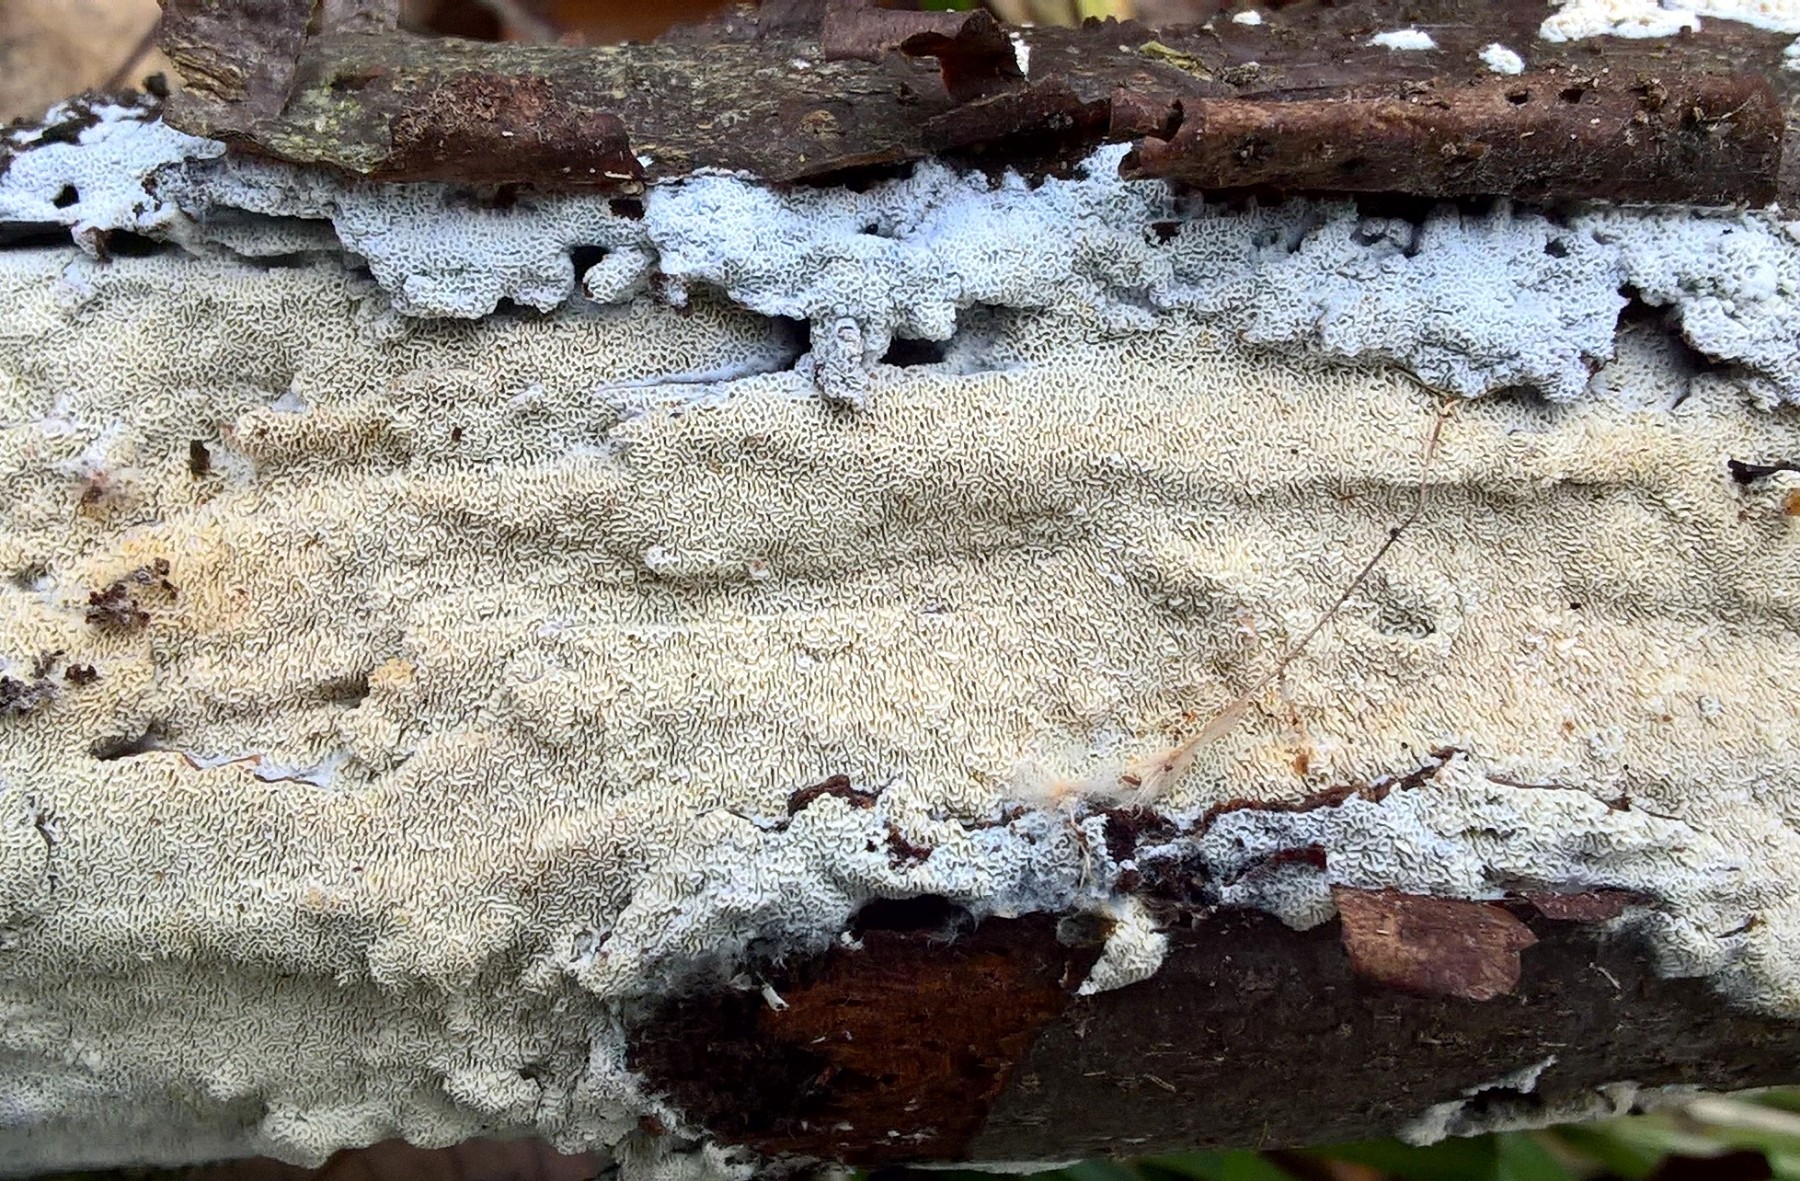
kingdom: Fungi
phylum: Basidiomycota
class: Agaricomycetes
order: Hymenochaetales
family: Schizoporaceae
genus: Xylodon
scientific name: Xylodon subtropicus
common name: labyrint-tandsvamp
